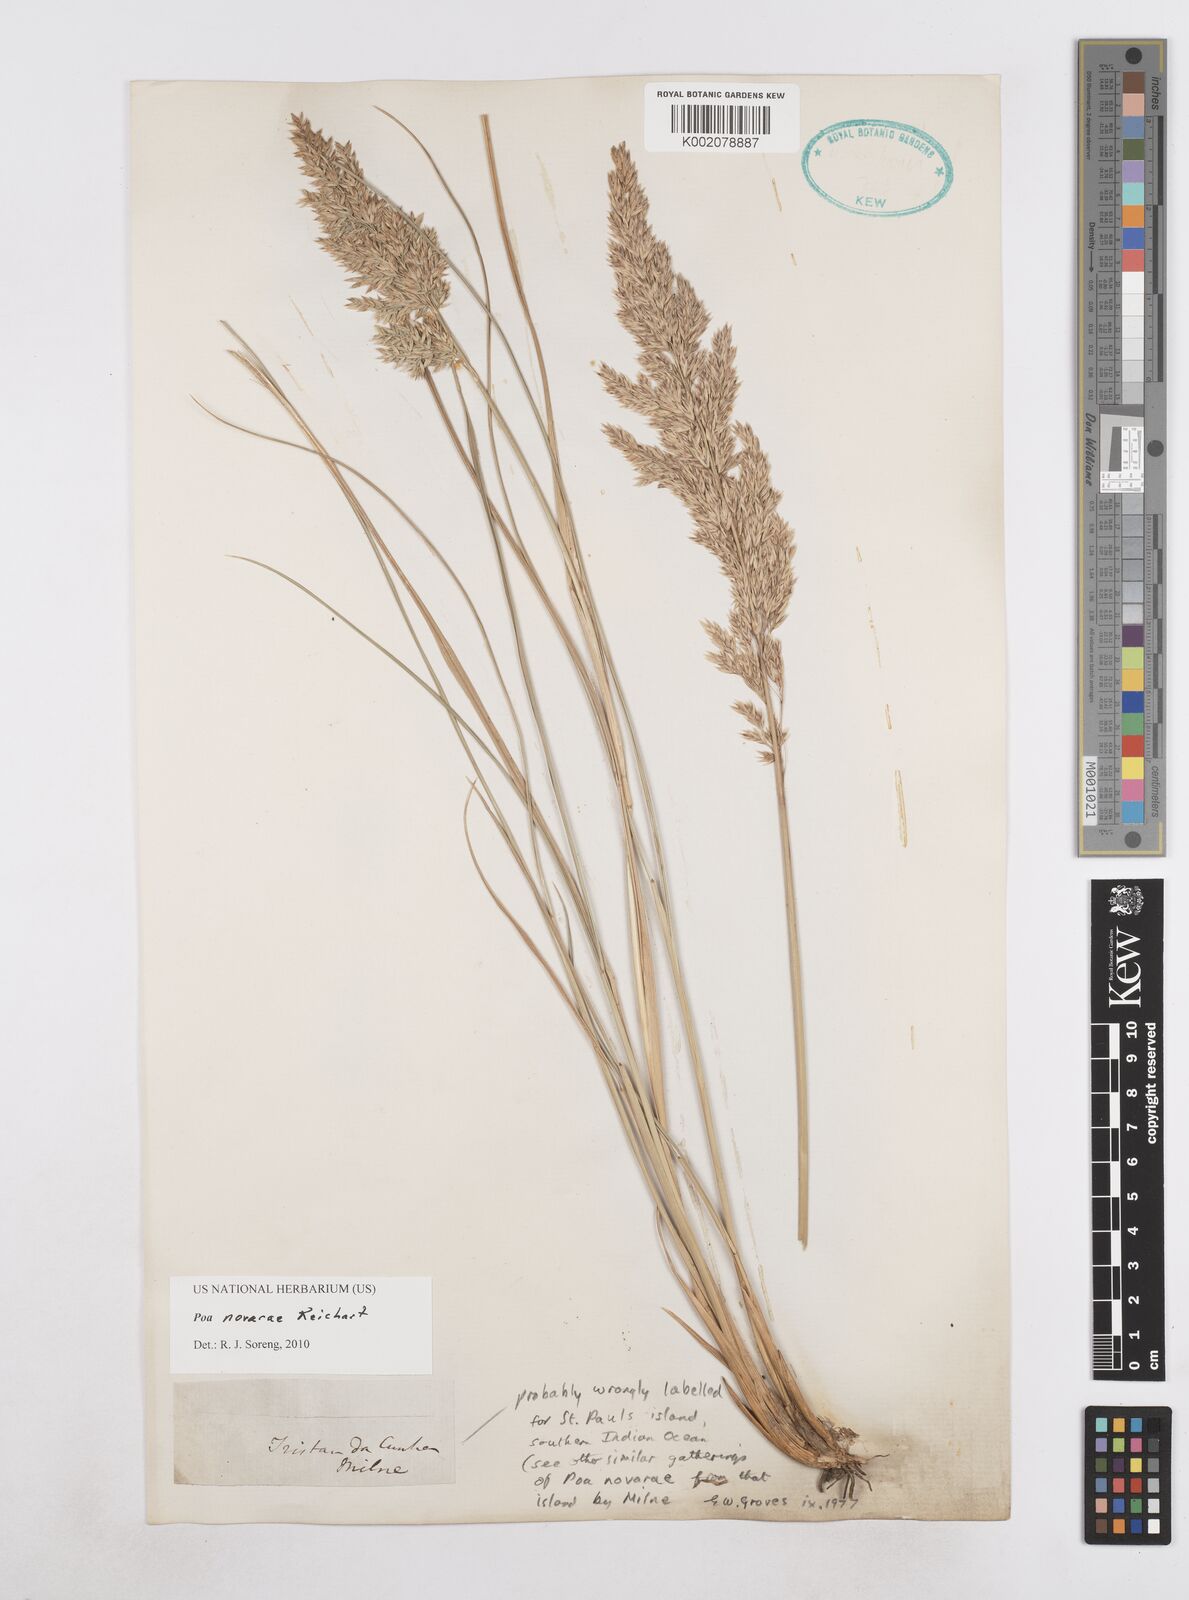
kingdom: Plantae
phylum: Tracheophyta
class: Liliopsida
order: Poales
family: Poaceae
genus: Poa
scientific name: Poa novarae
